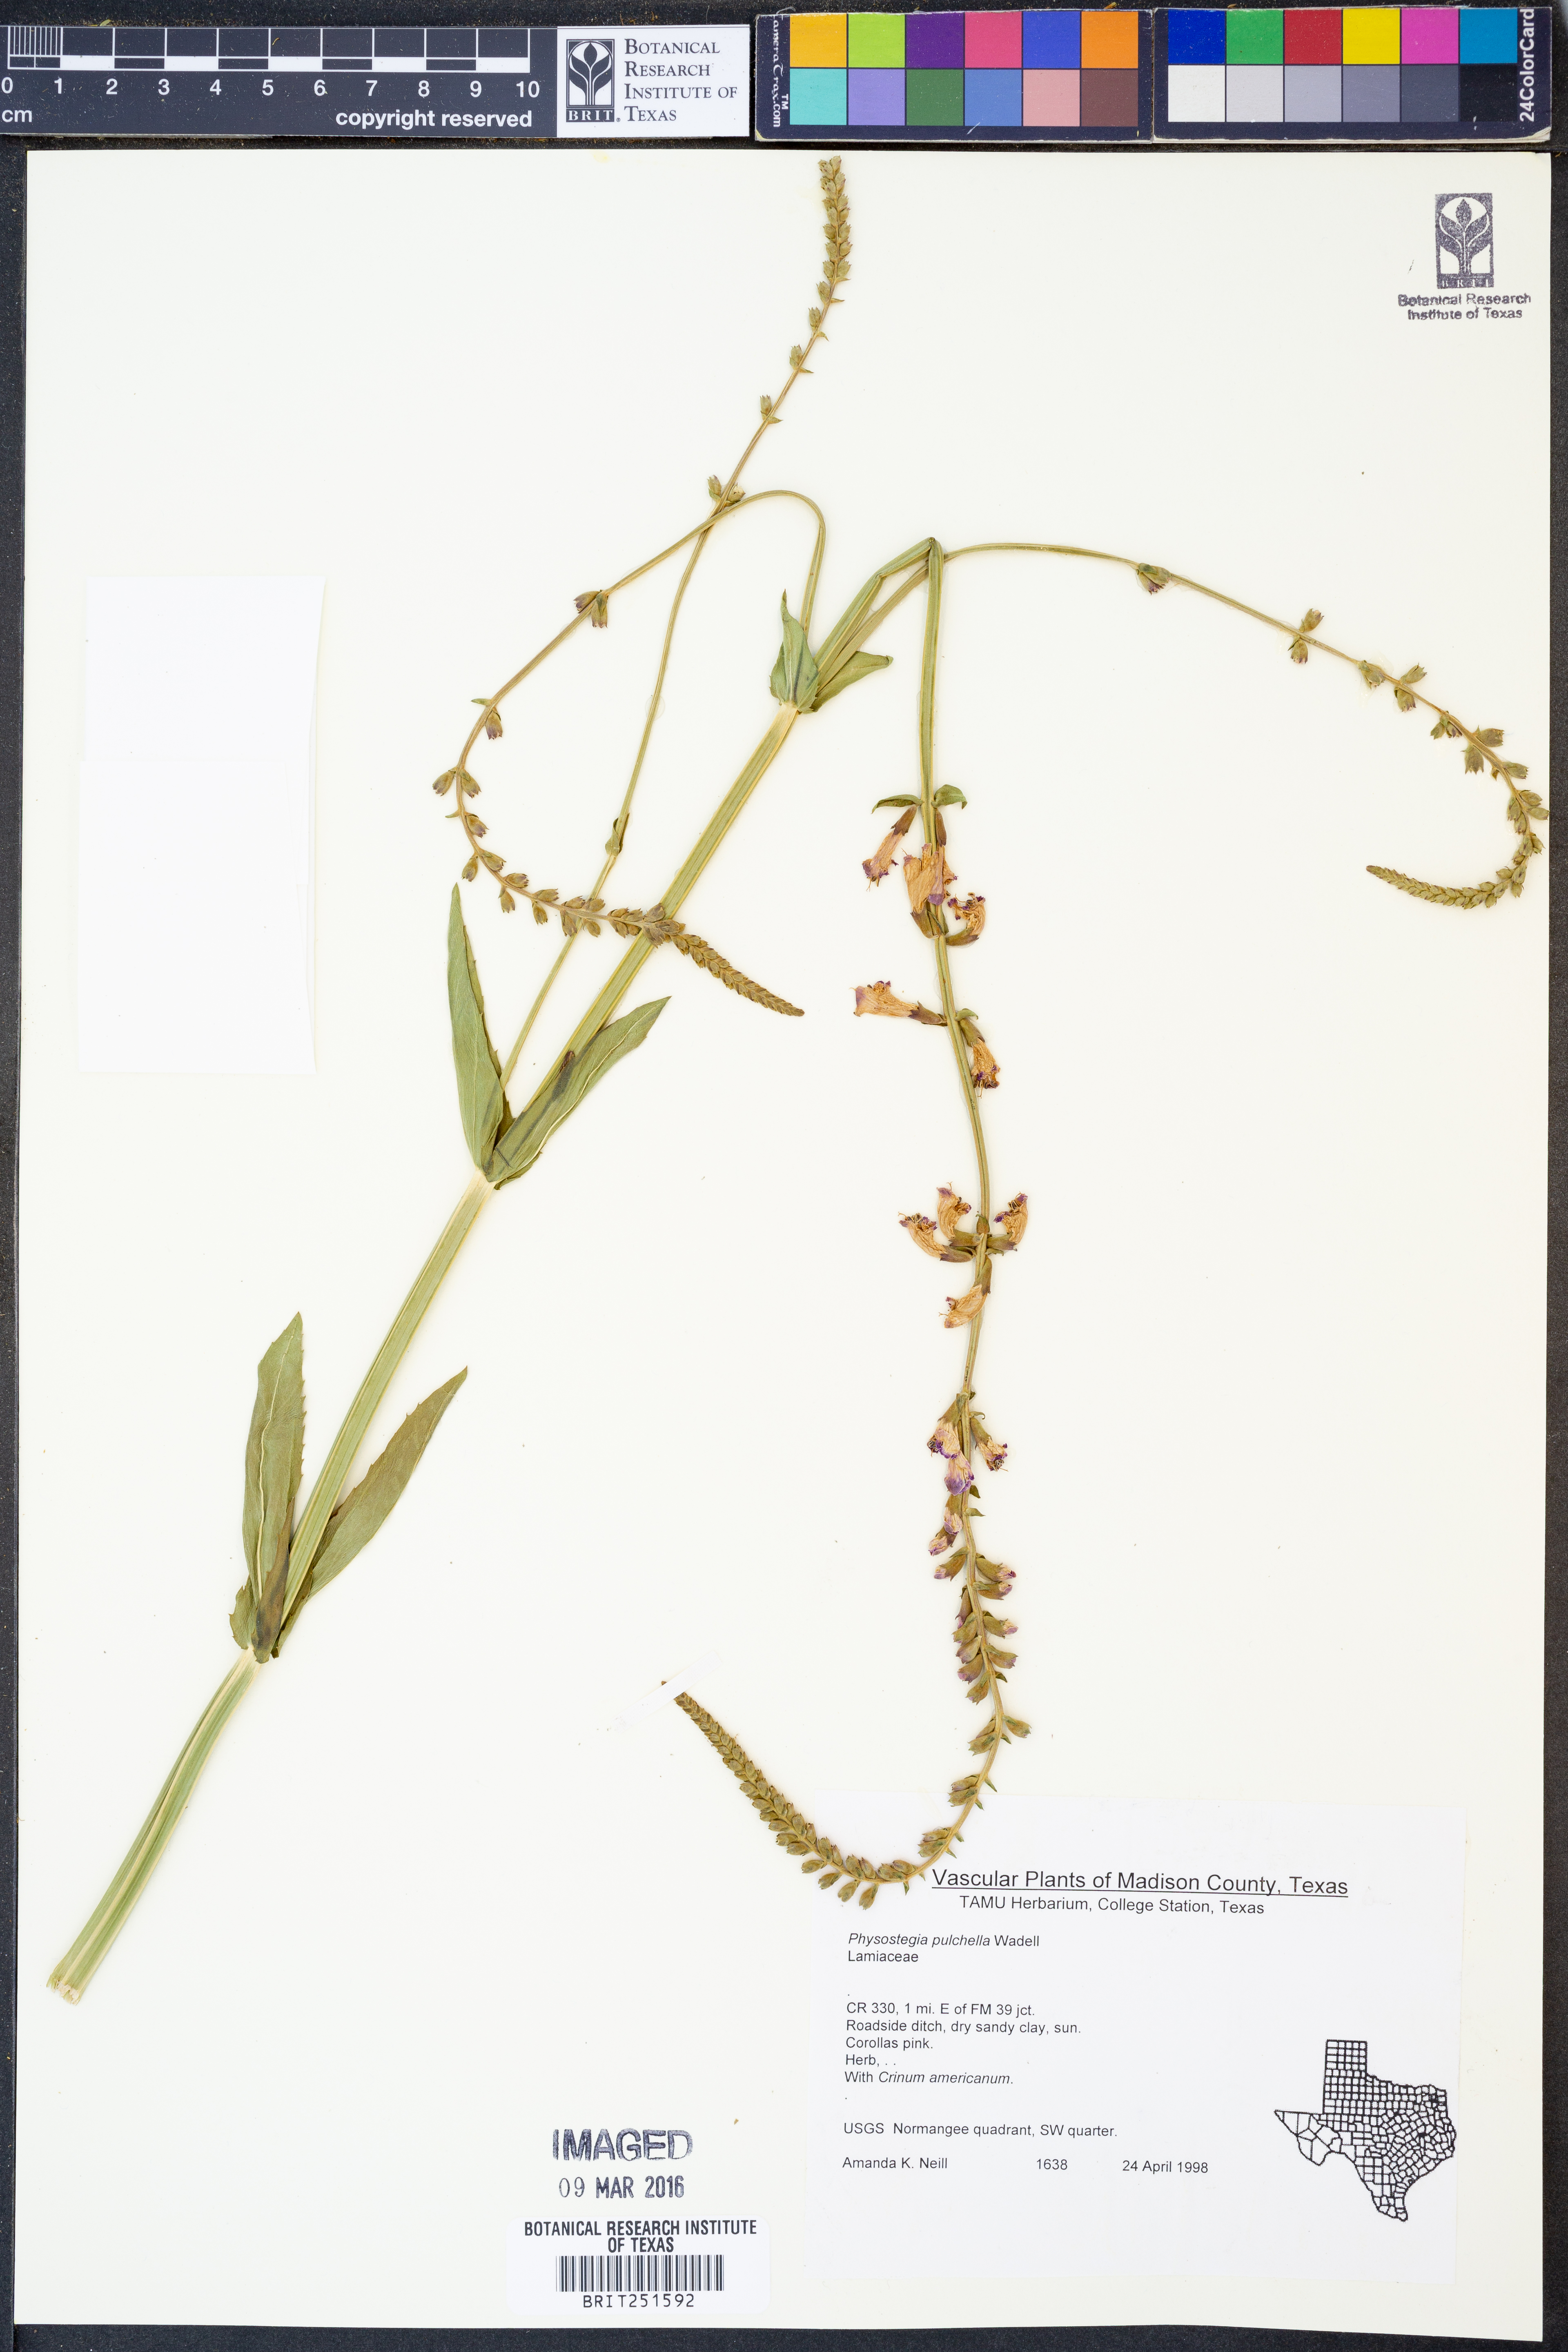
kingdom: Plantae
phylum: Tracheophyta
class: Magnoliopsida
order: Lamiales
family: Lamiaceae
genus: Physostegia
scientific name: Physostegia pulchella
